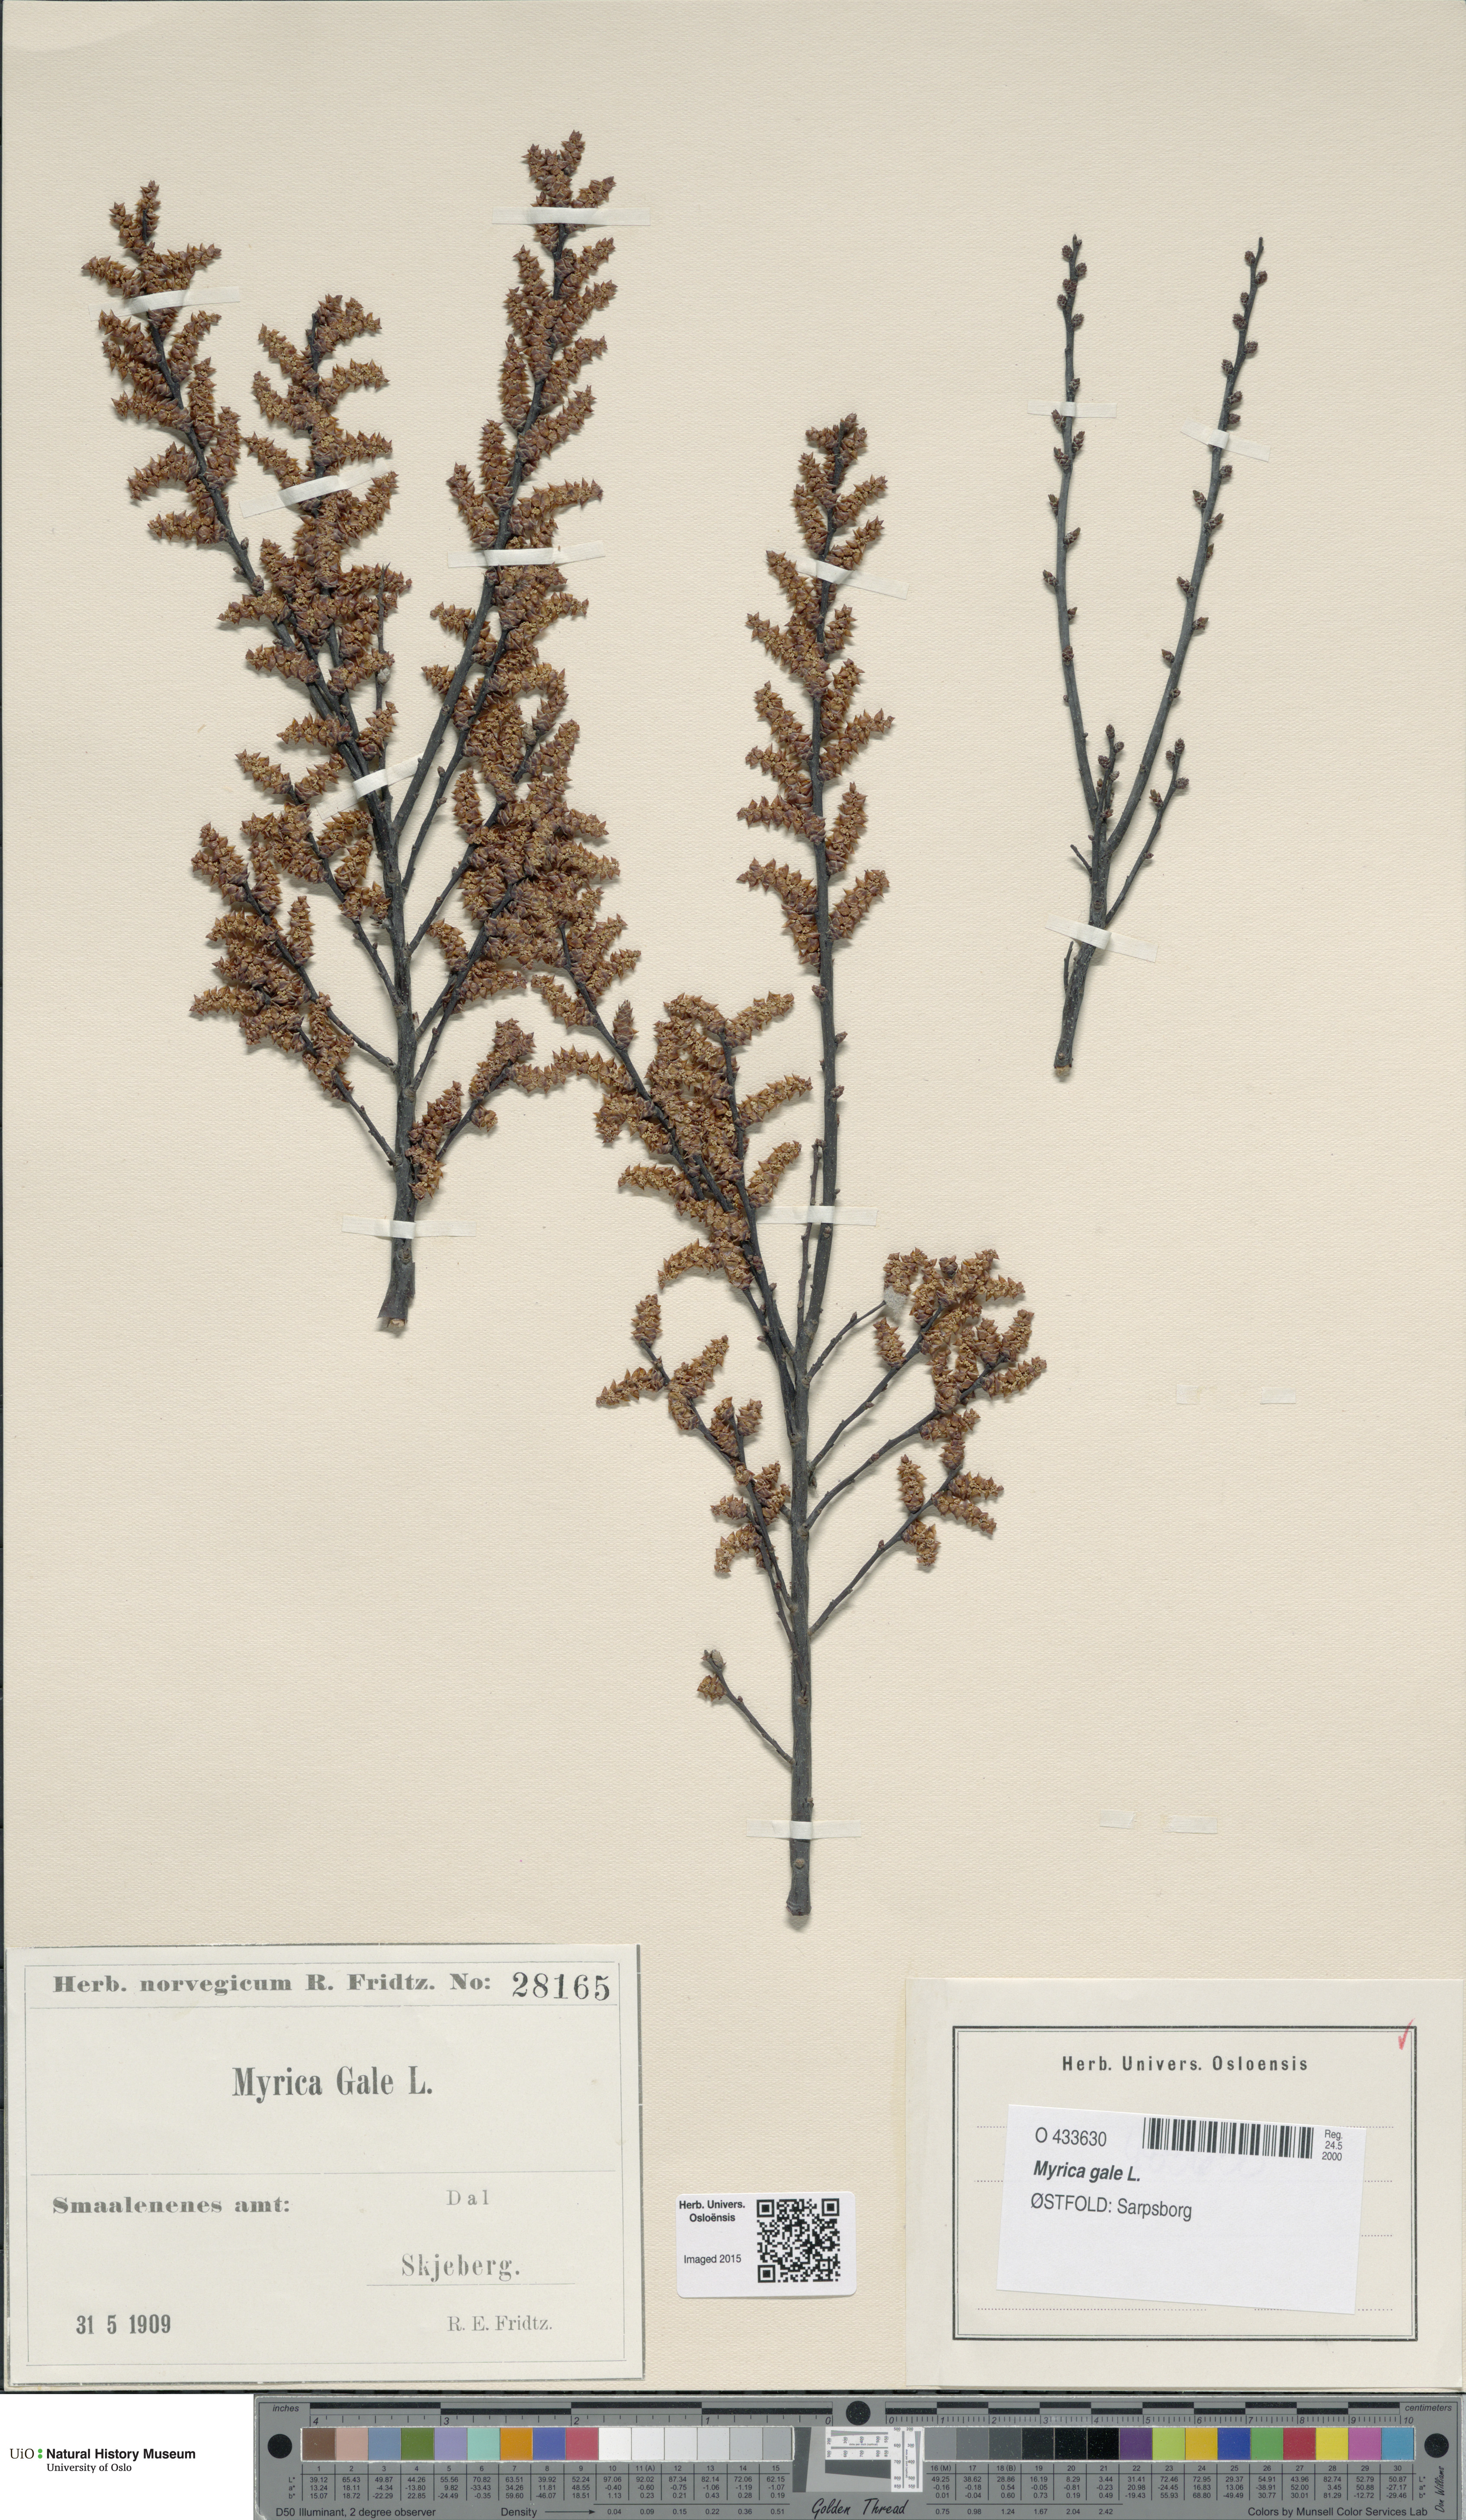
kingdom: Plantae
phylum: Tracheophyta
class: Magnoliopsida
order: Fagales
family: Myricaceae
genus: Myrica
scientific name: Myrica gale
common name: Sweet gale
